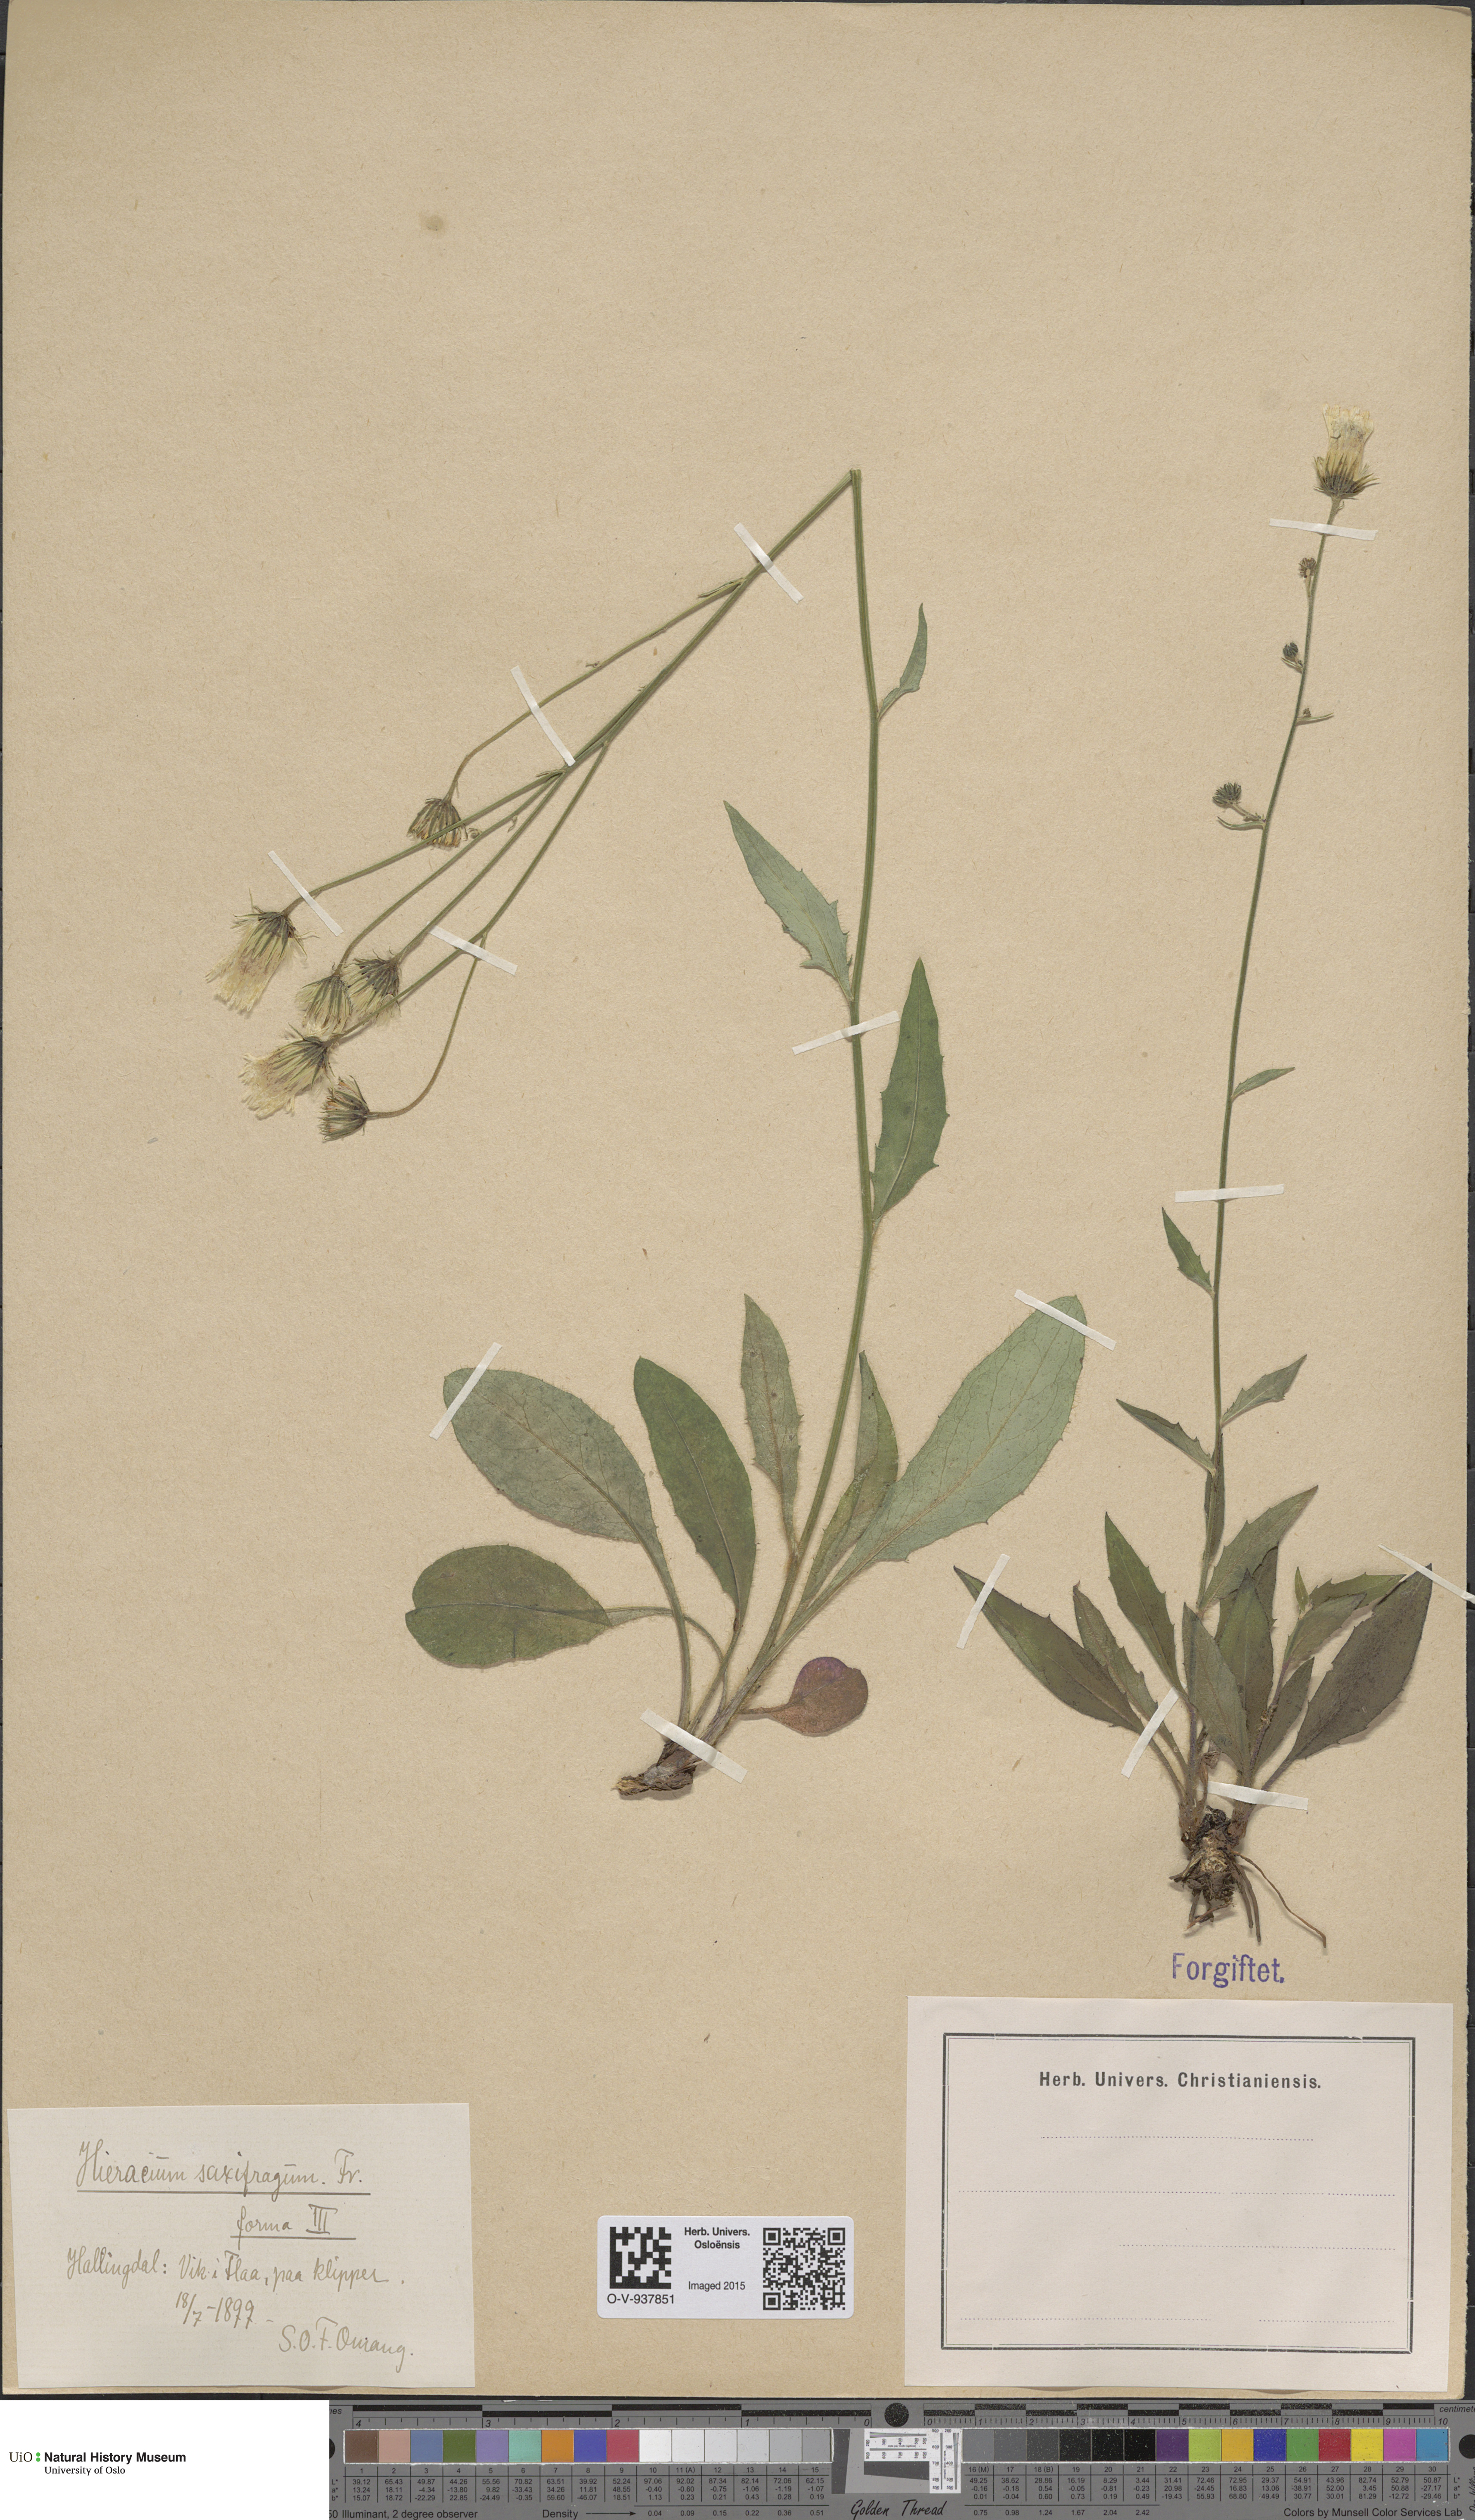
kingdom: Plantae
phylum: Tracheophyta
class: Magnoliopsida
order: Asterales
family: Asteraceae
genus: Hieracium
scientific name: Hieracium saxifragum
